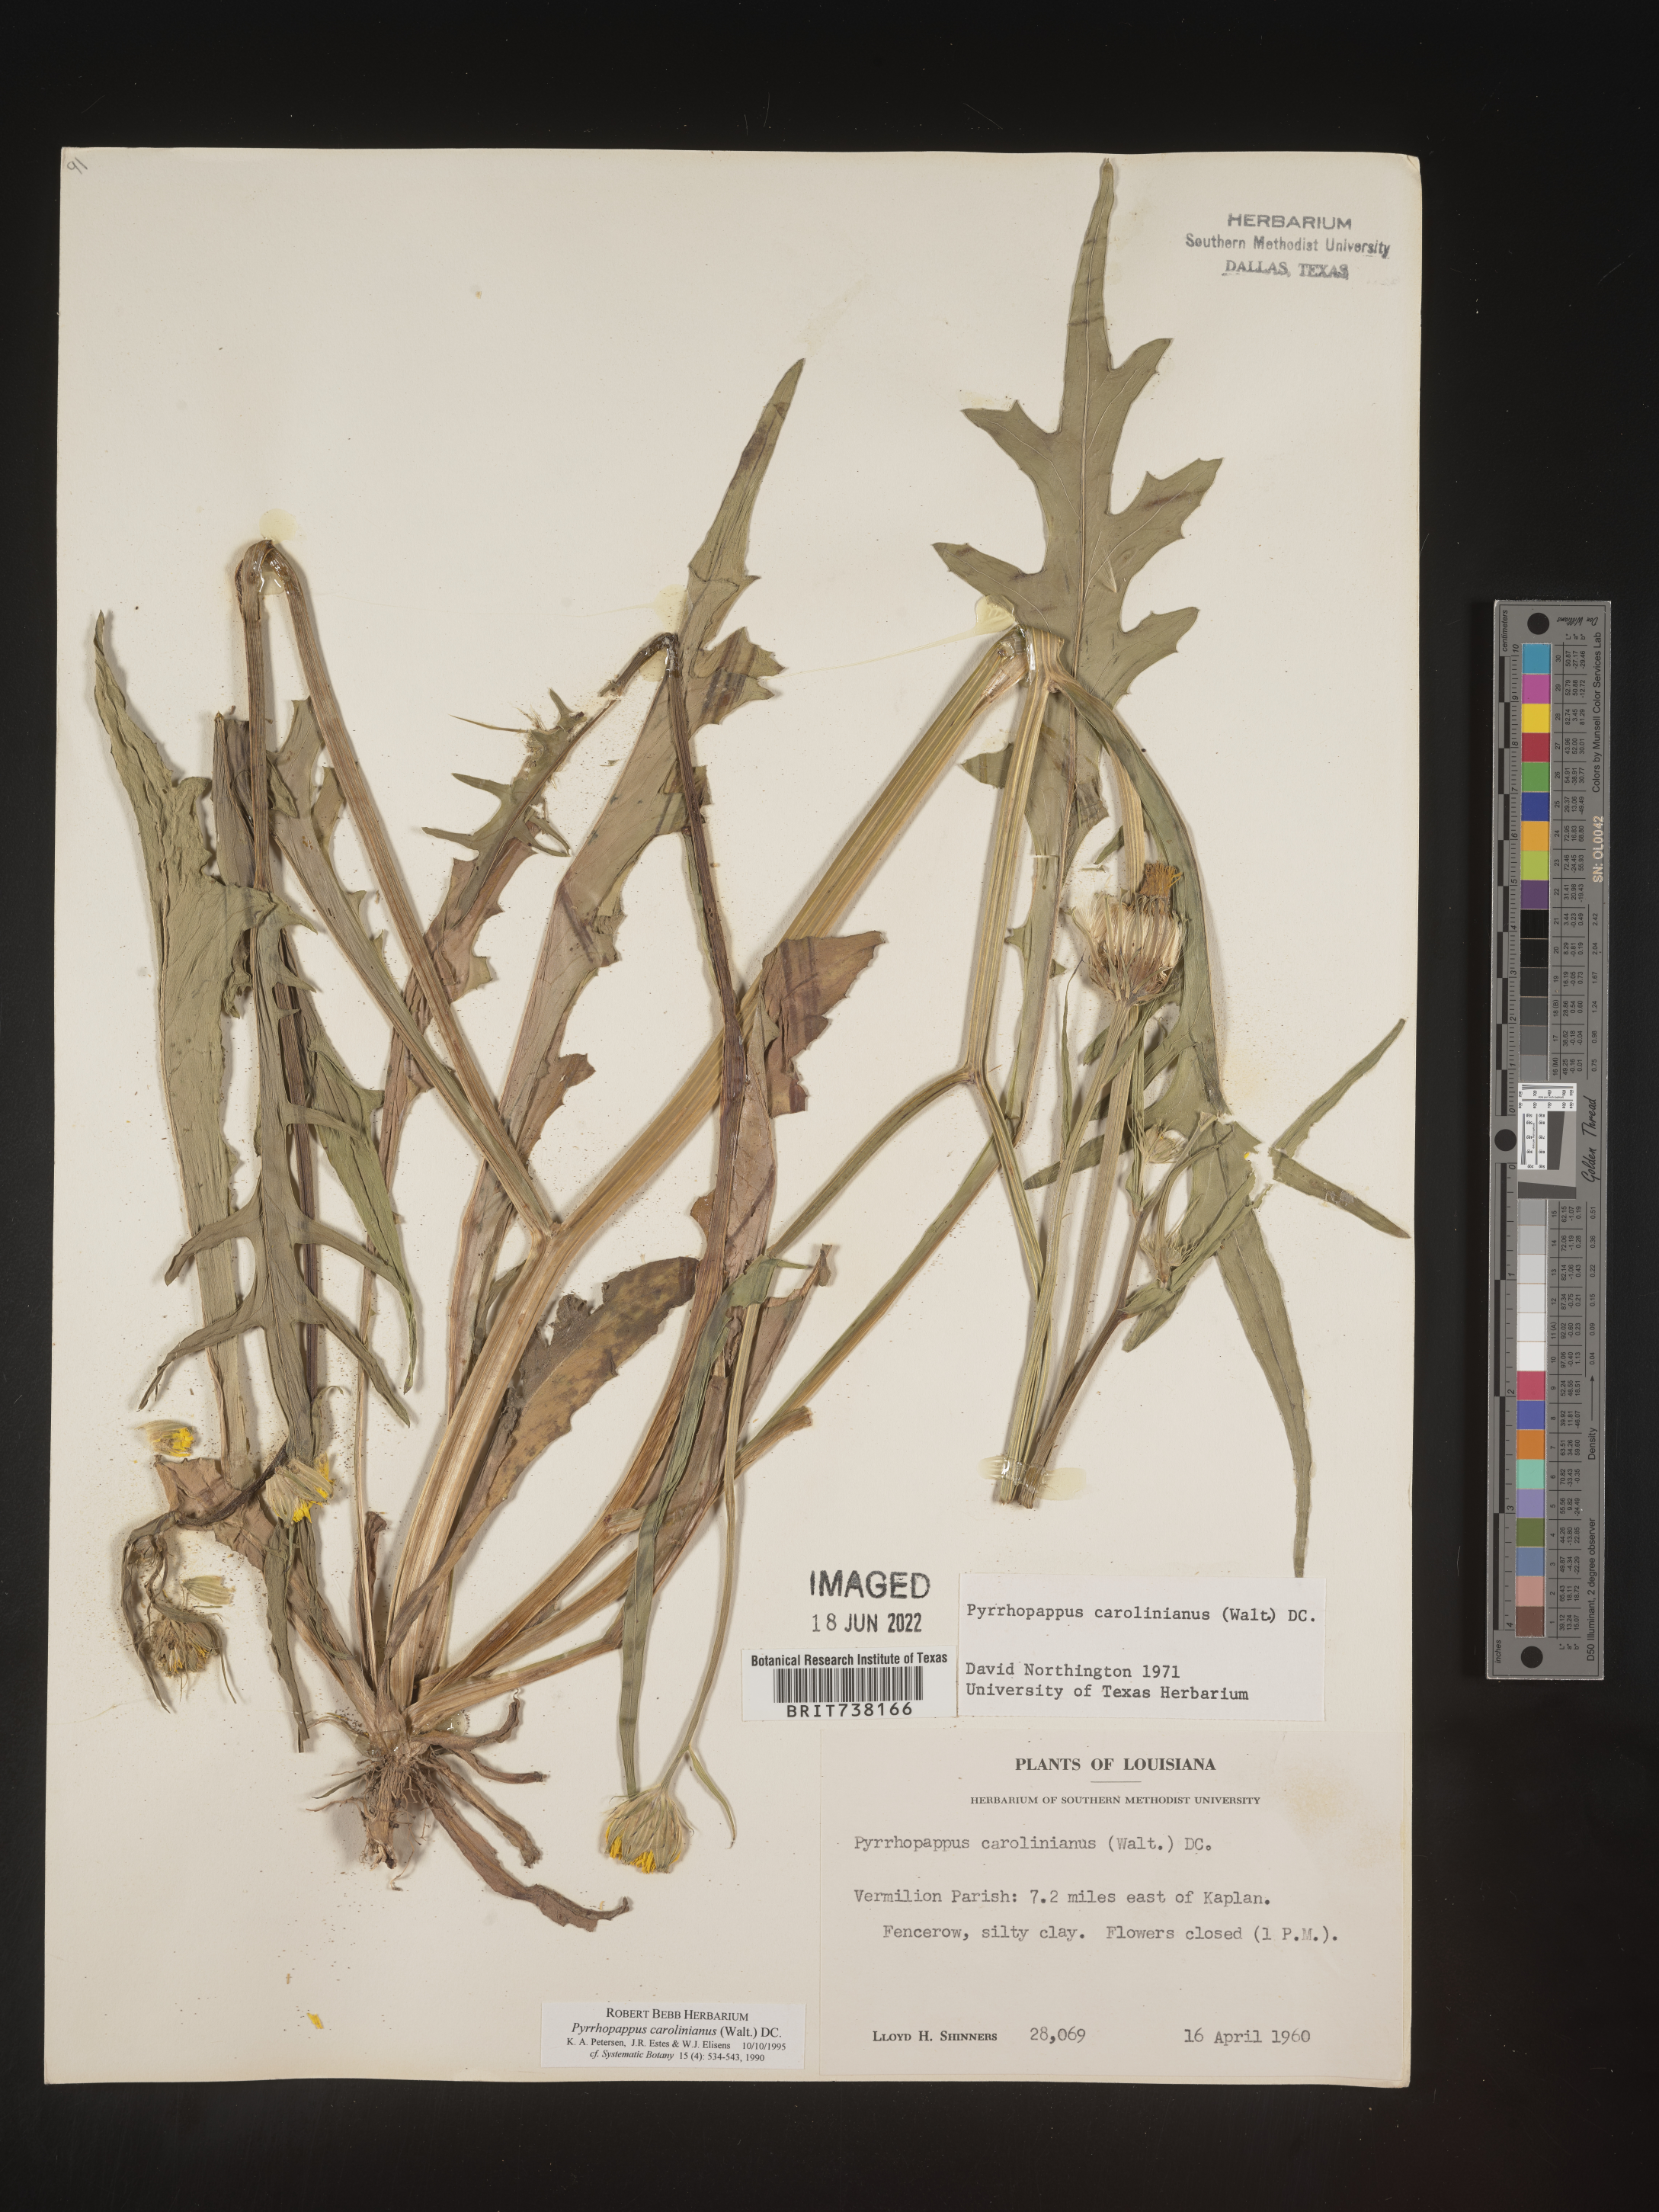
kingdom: Plantae
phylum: Tracheophyta
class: Magnoliopsida
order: Asterales
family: Asteraceae
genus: Pyrrhopappus
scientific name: Pyrrhopappus carolinianus
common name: Carolina desert-chicory
